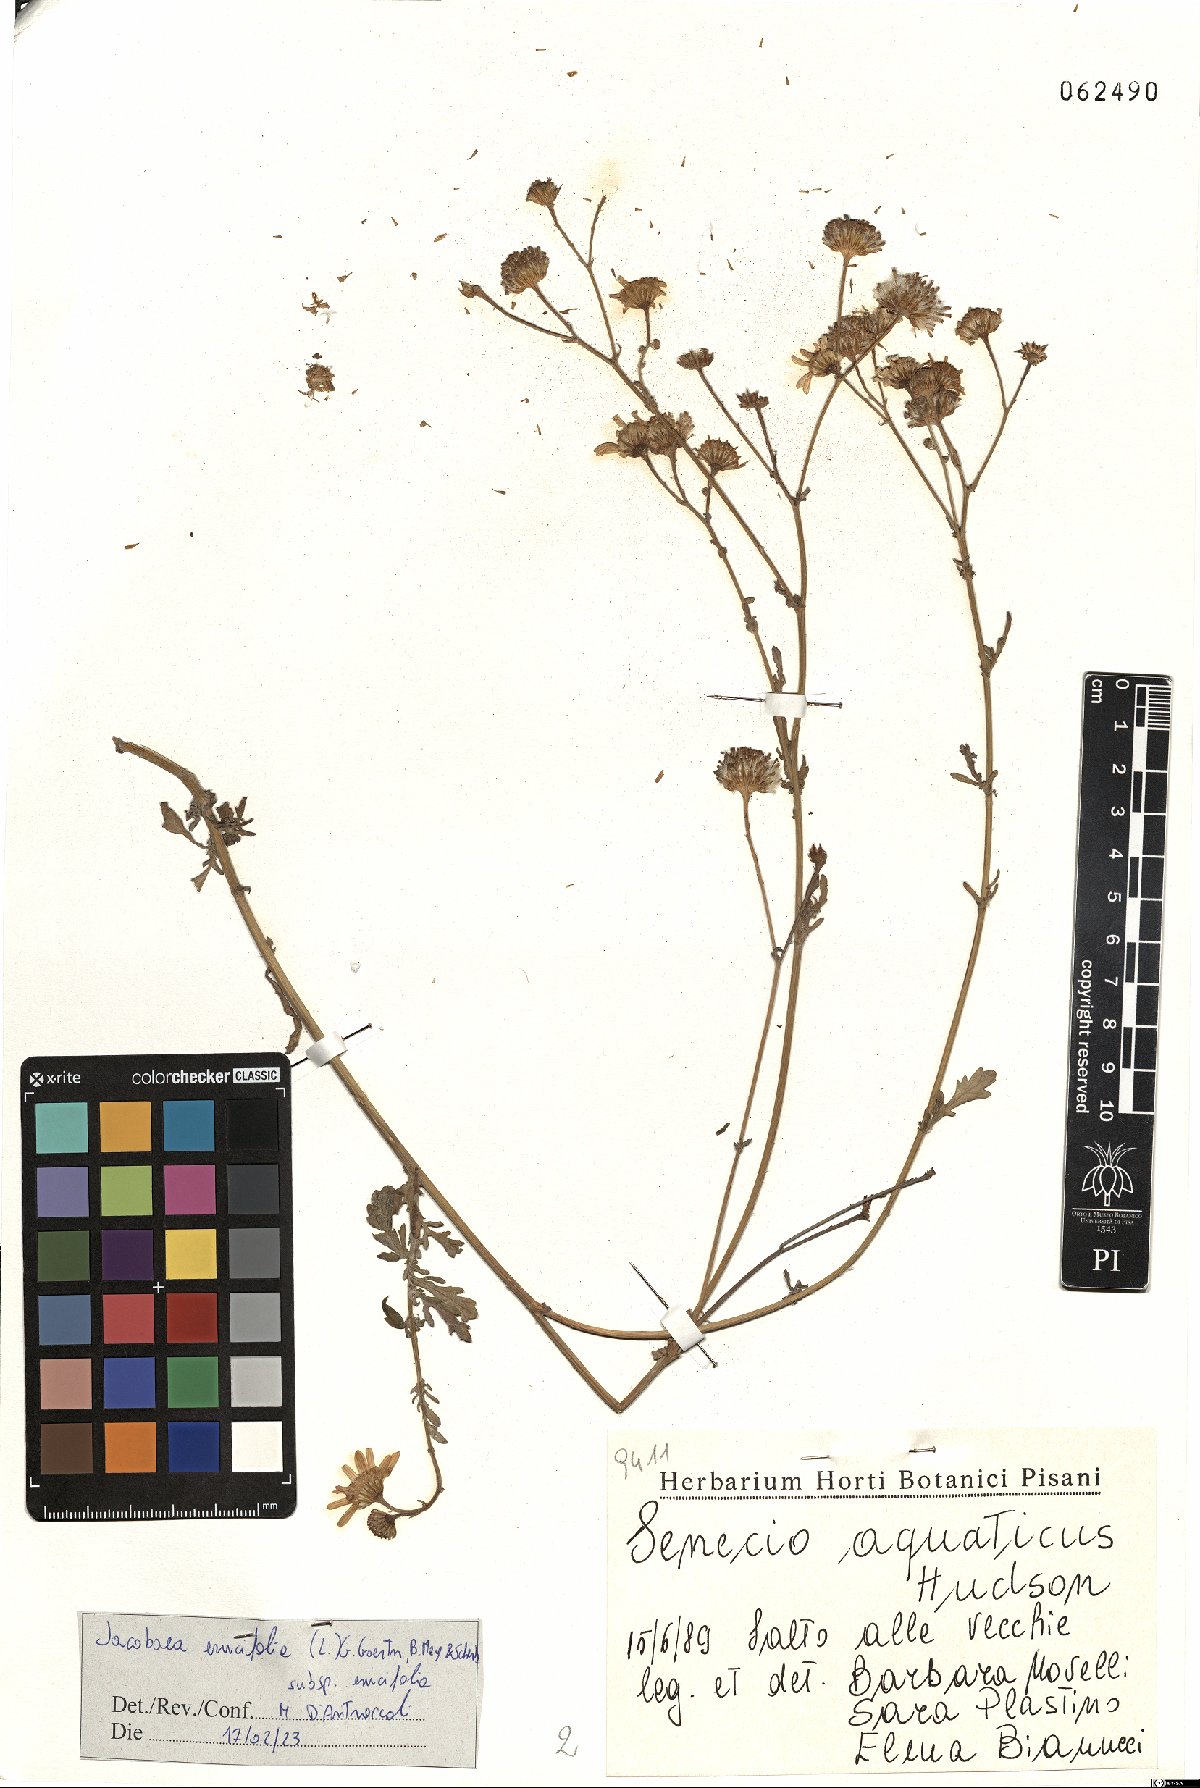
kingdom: Plantae
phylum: Tracheophyta
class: Magnoliopsida
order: Asterales
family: Asteraceae
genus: Jacobaea
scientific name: Jacobaea erucifolia
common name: Hoary ragwort
